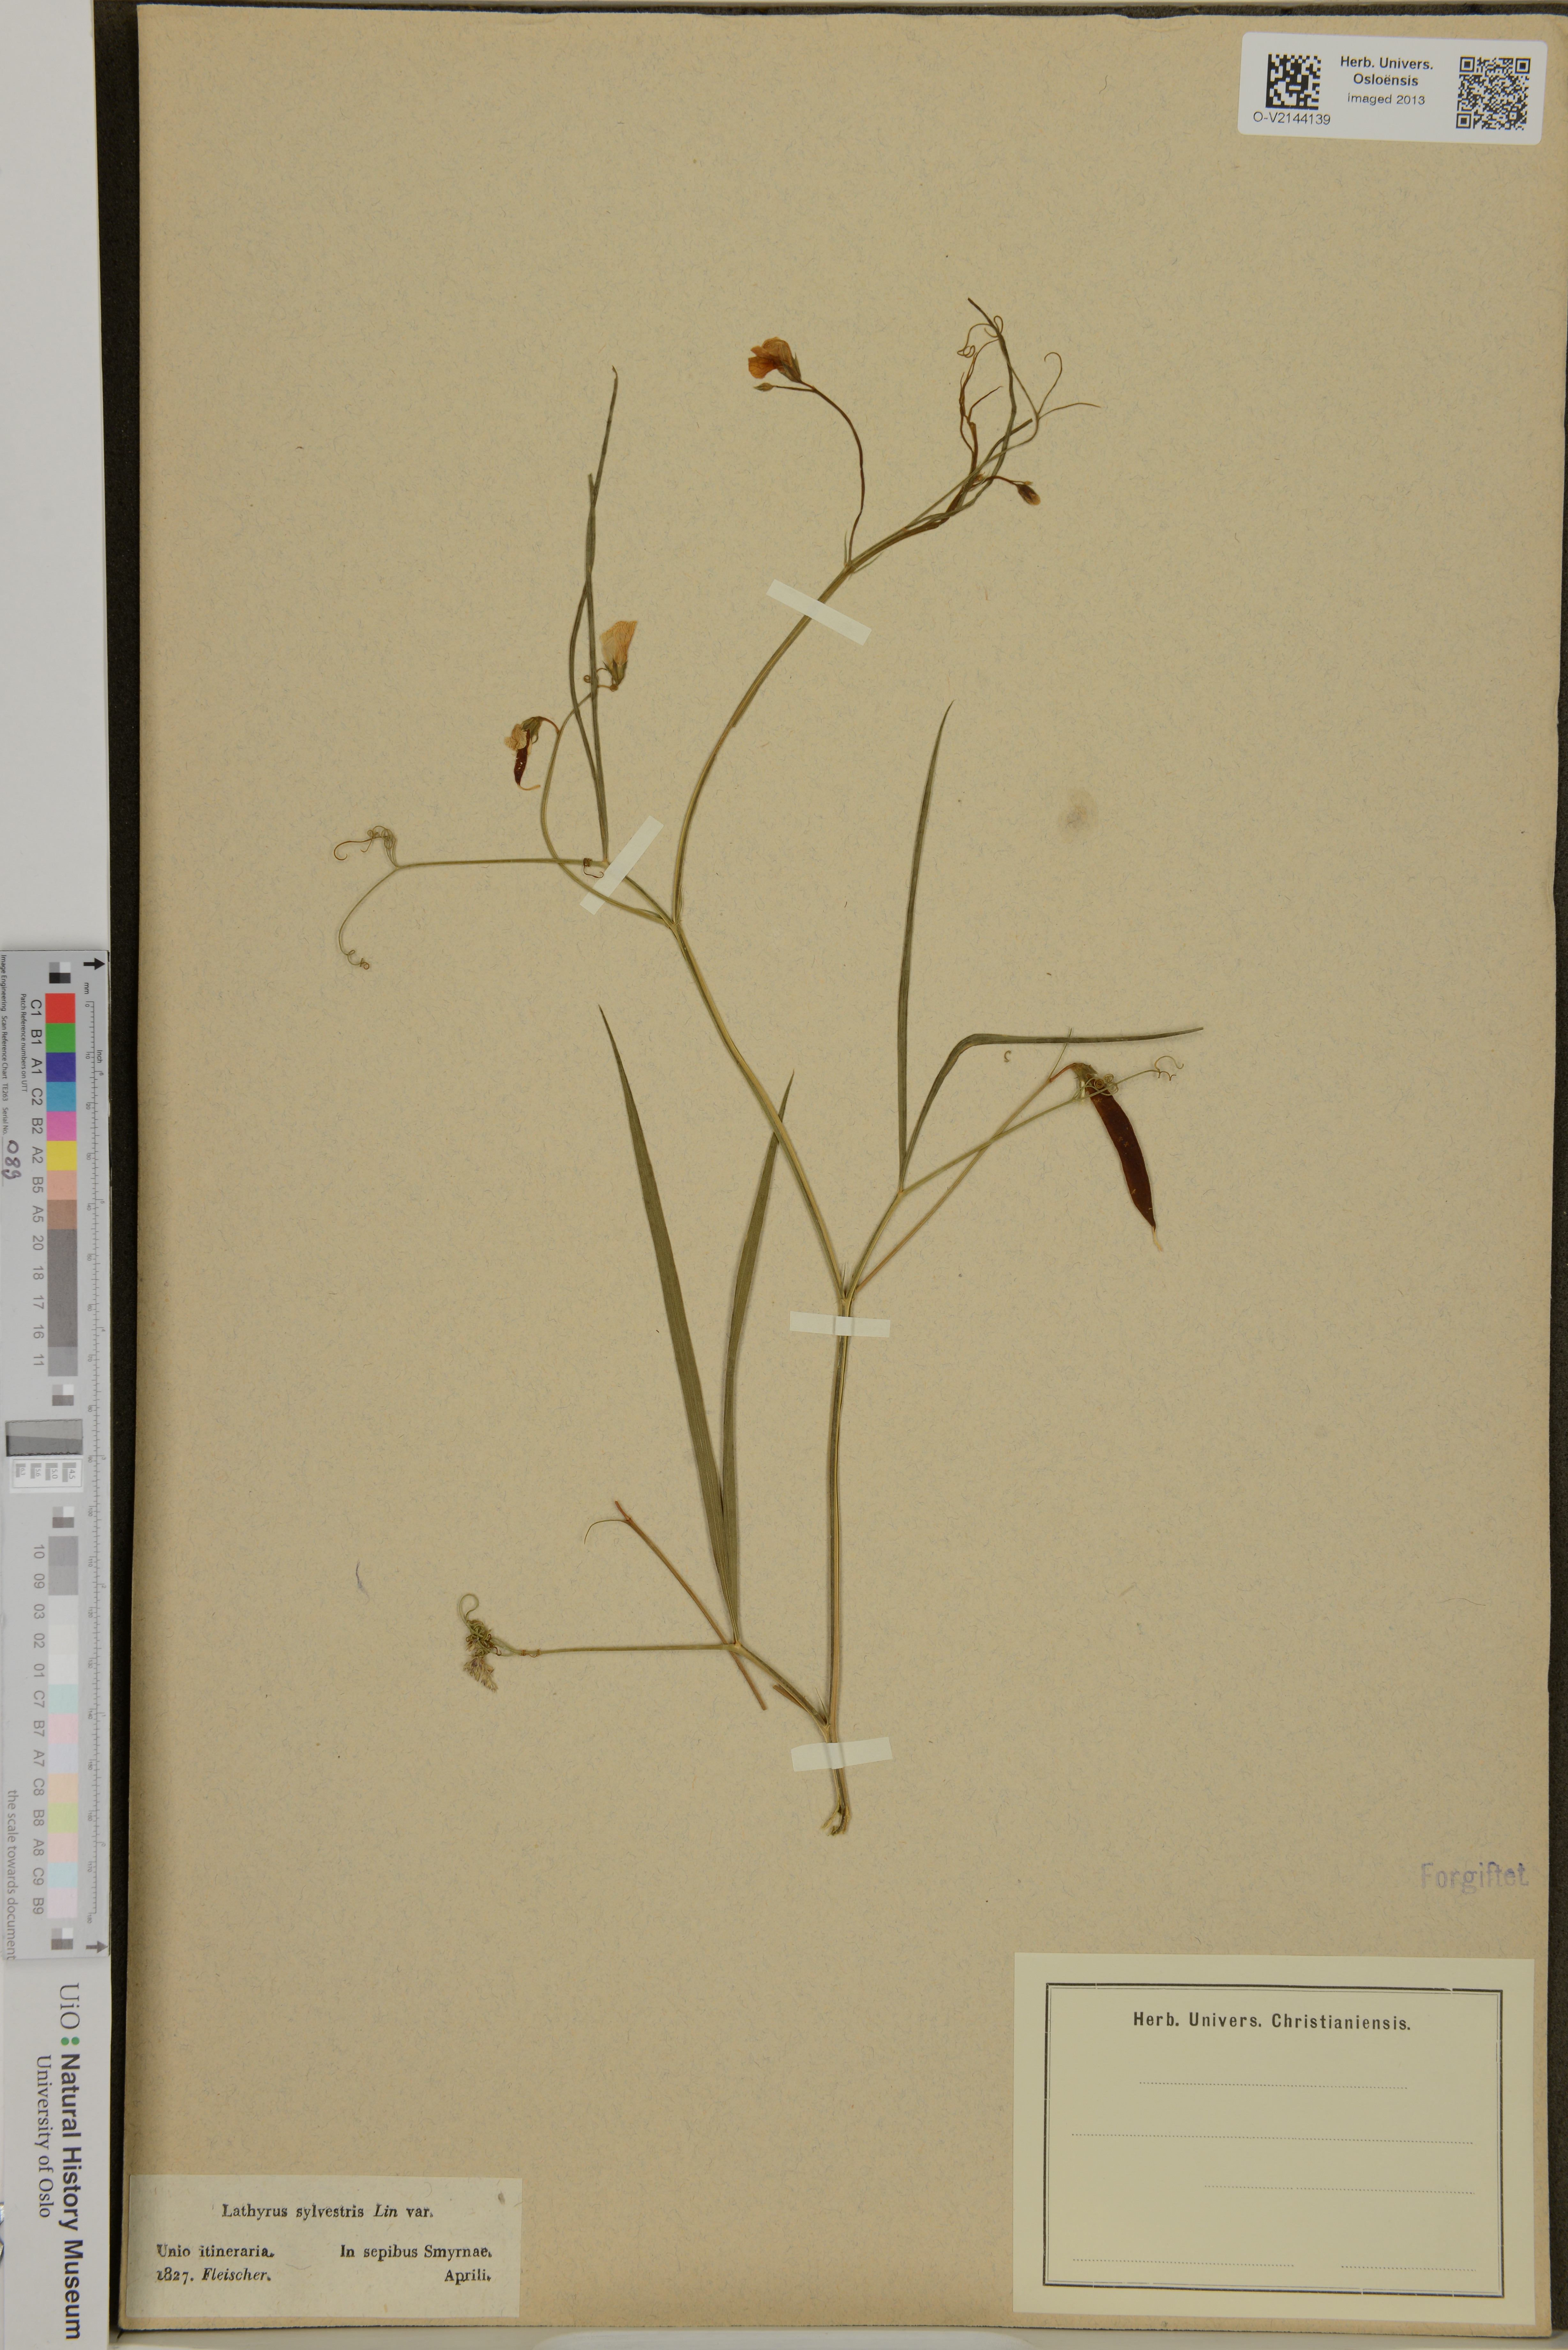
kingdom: Plantae
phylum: Tracheophyta
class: Magnoliopsida
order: Fabales
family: Fabaceae
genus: Lathyrus
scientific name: Lathyrus sylvestris
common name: Flat pea
